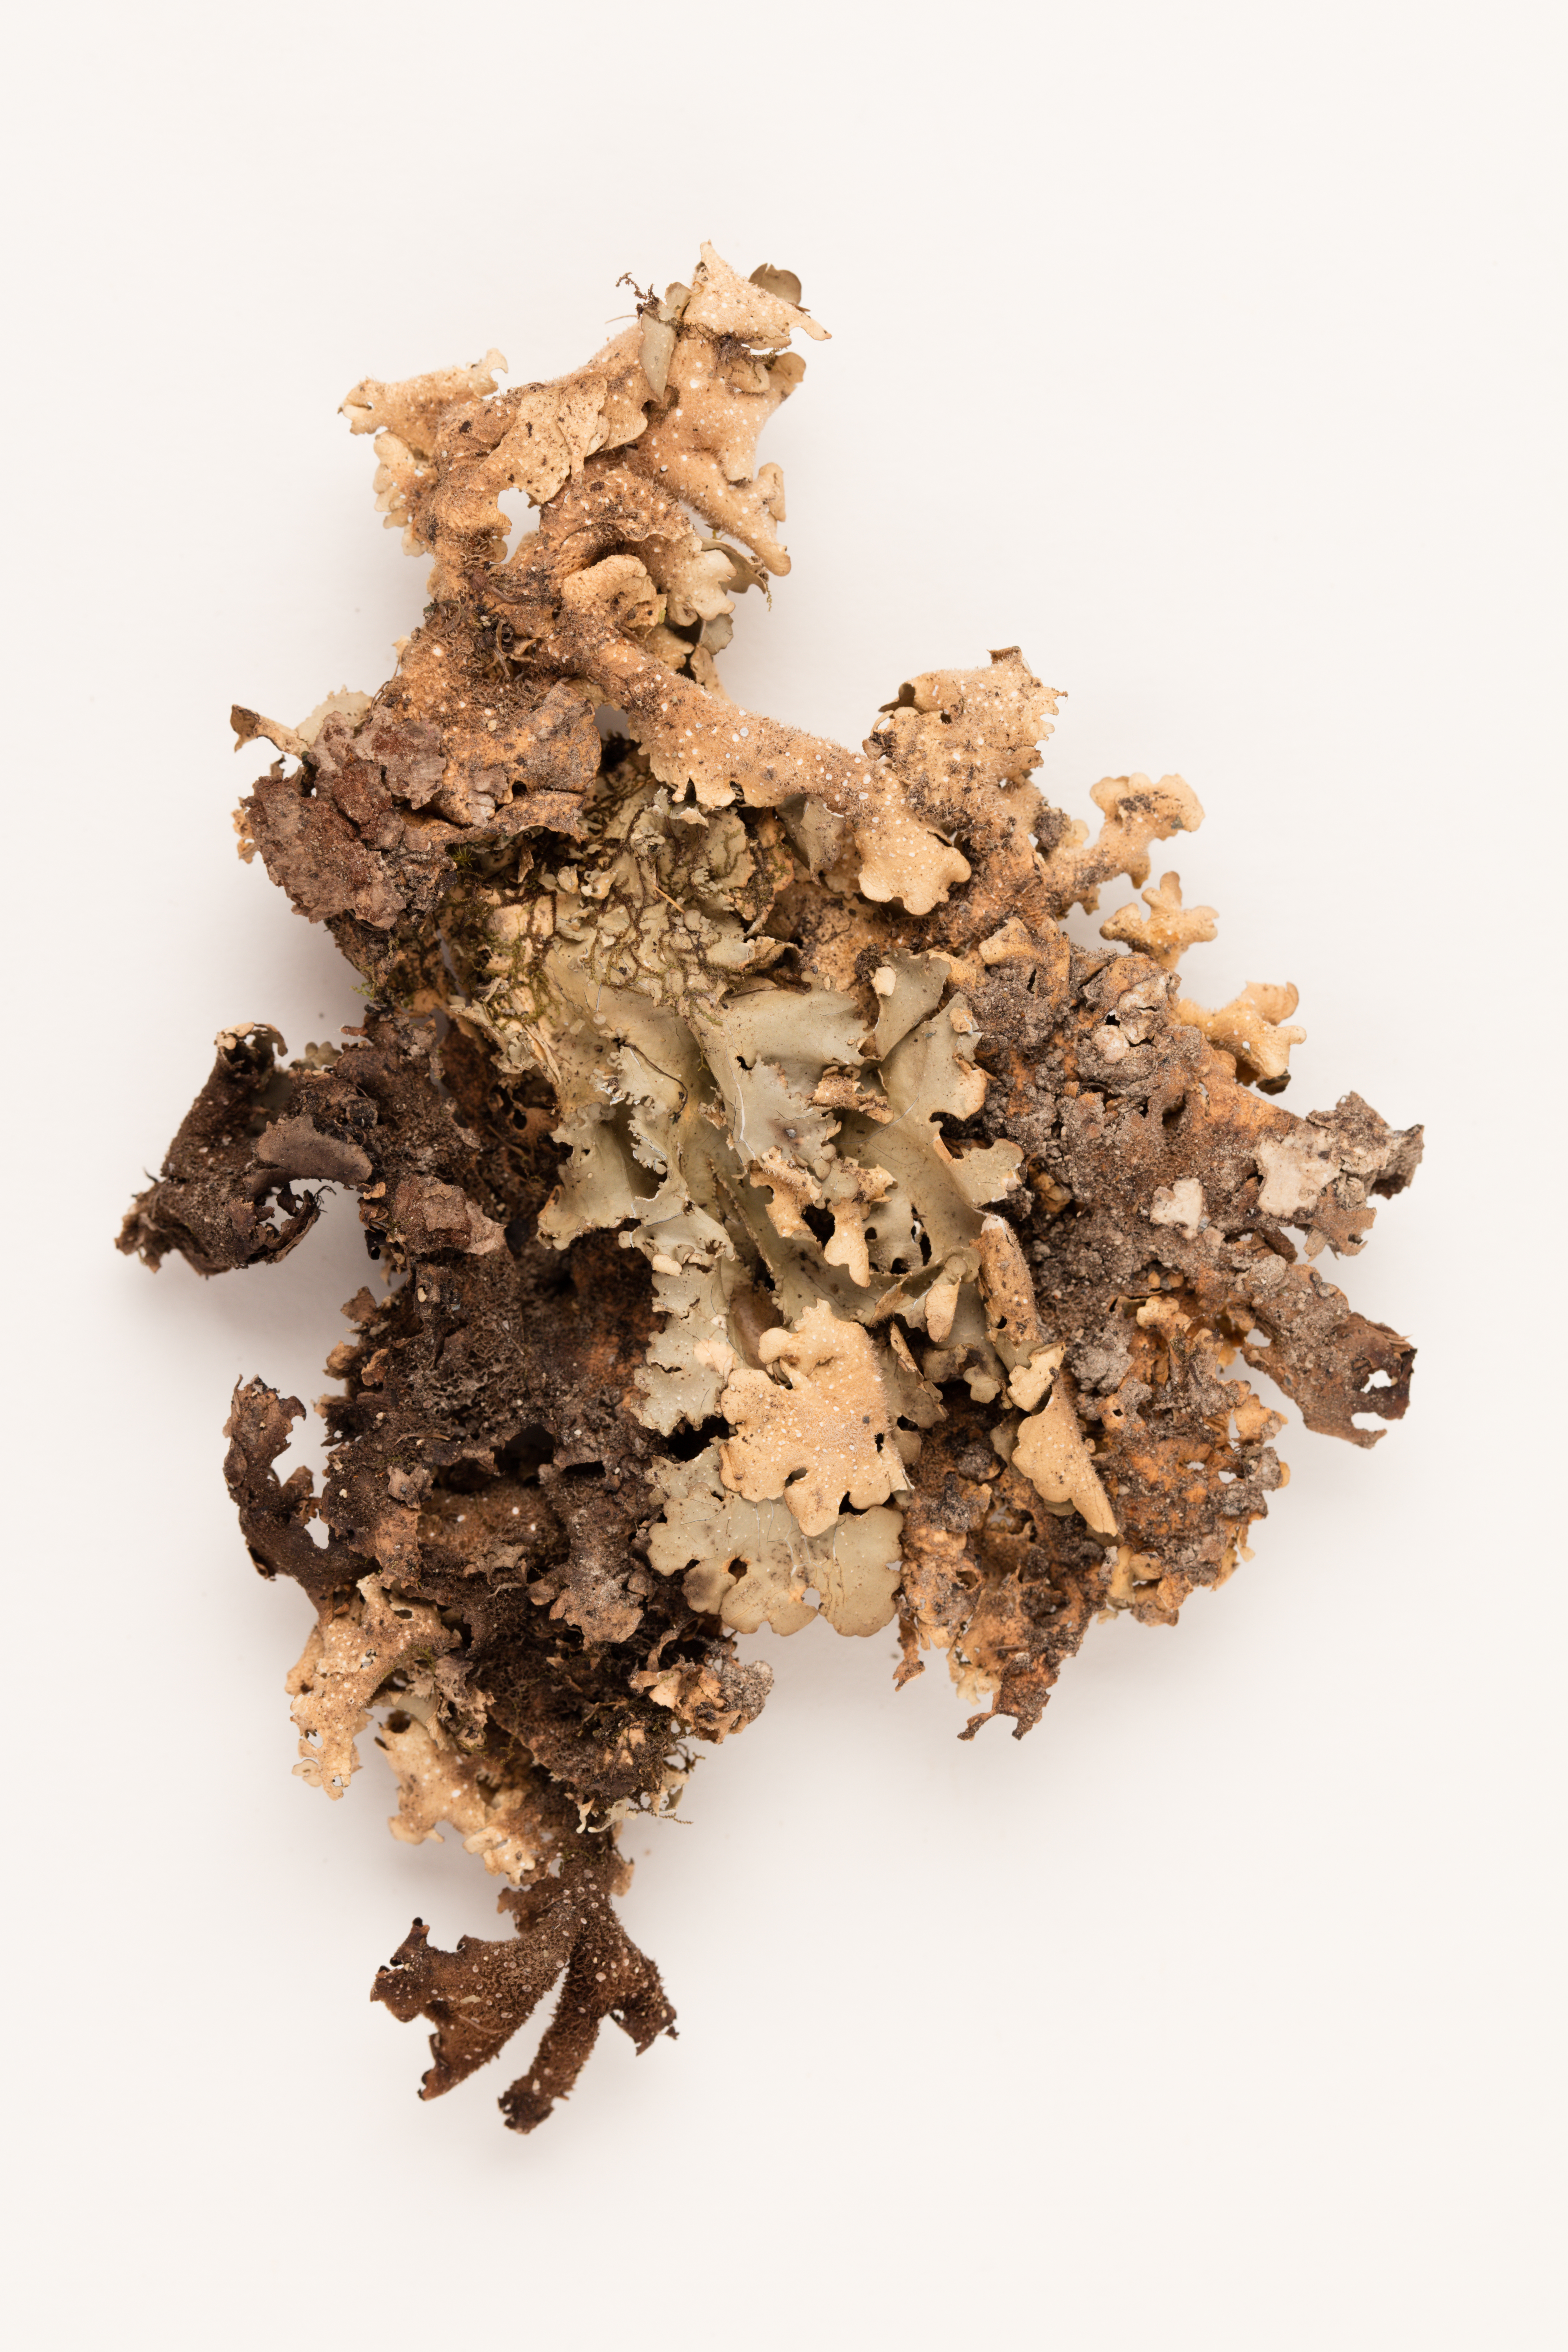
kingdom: Fungi
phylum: Ascomycota
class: Lecanoromycetes
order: Peltigerales
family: Lobariaceae
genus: Pseudocyphellaria
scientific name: Pseudocyphellaria dissimilis
